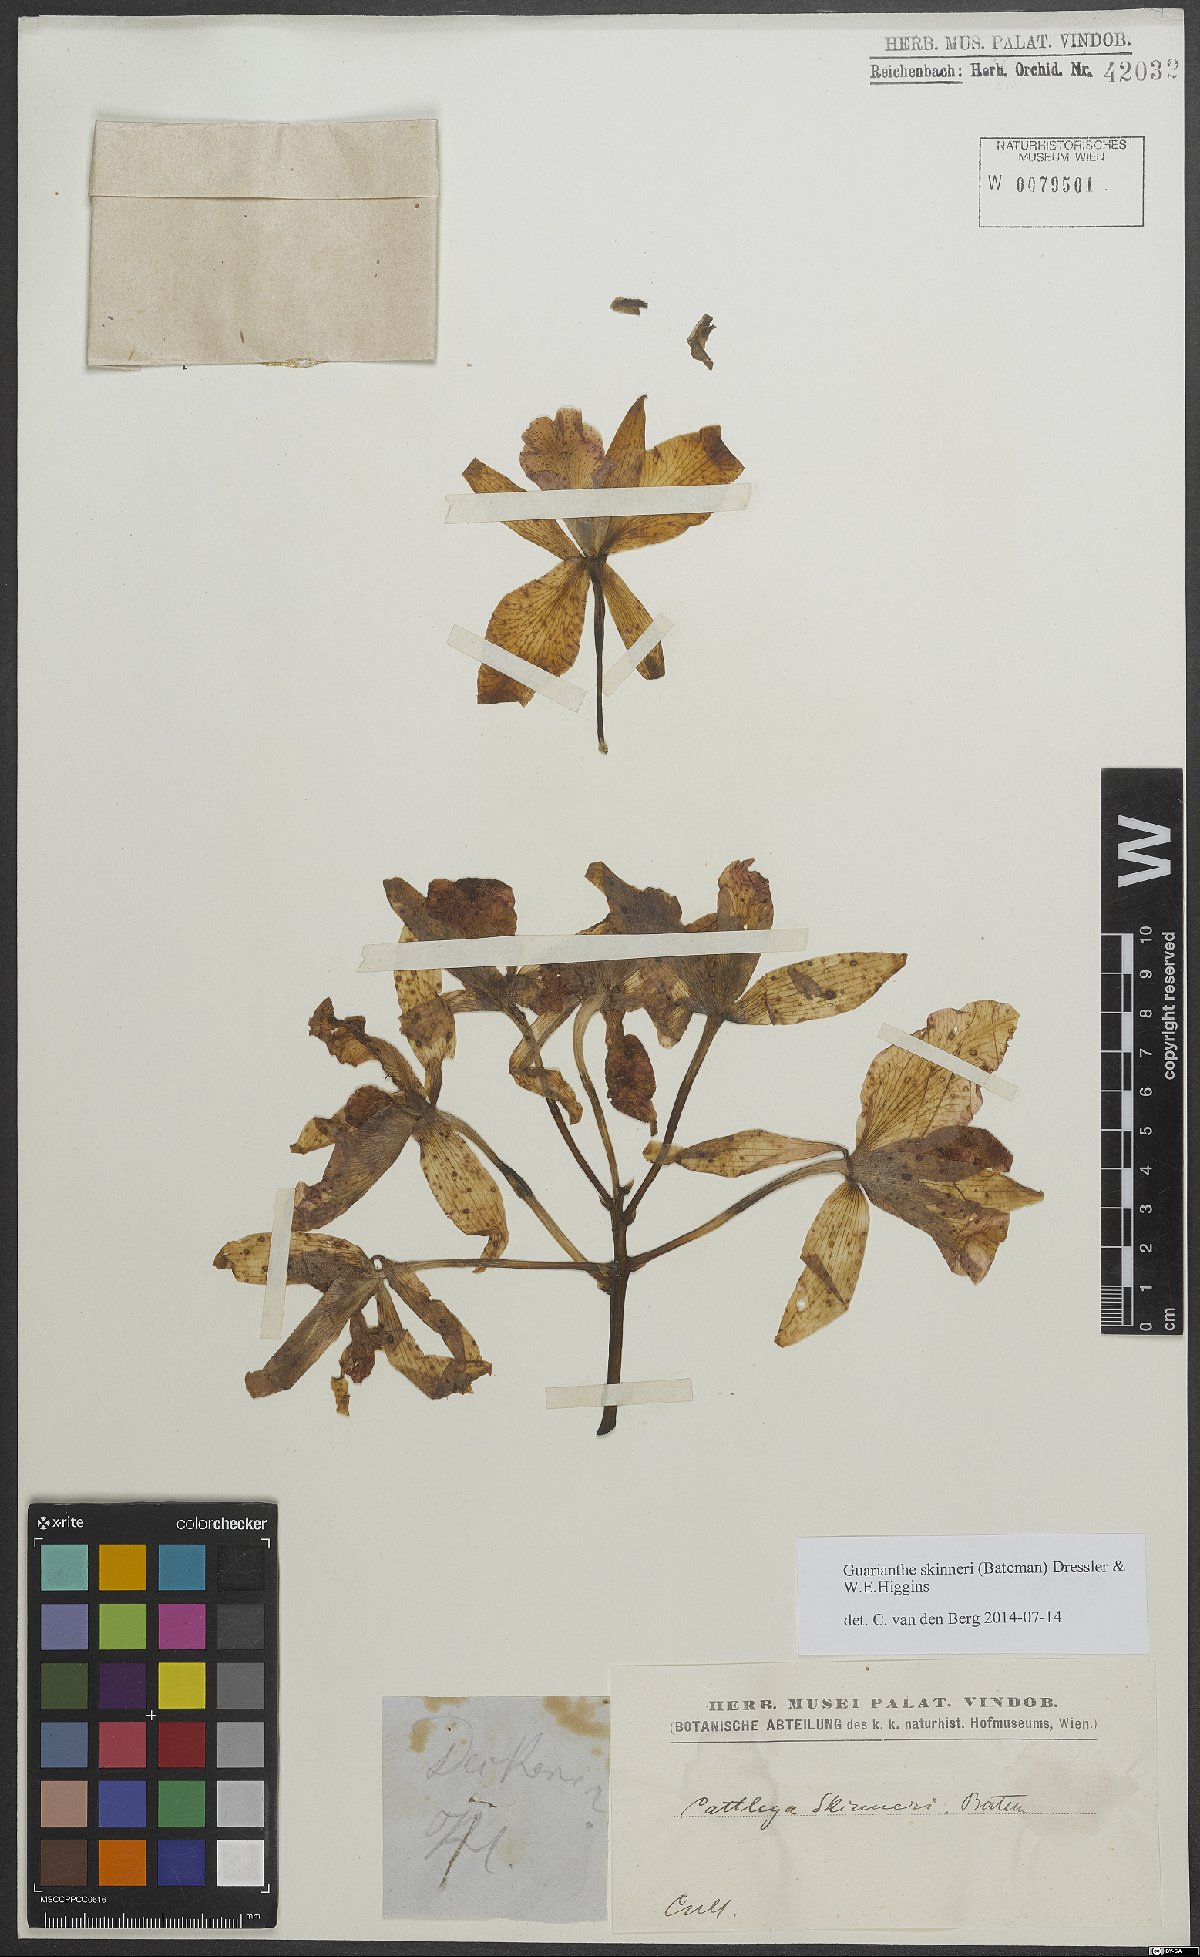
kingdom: Plantae
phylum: Tracheophyta
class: Liliopsida
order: Asparagales
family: Orchidaceae
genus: Guarianthe
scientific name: Guarianthe skinneri
